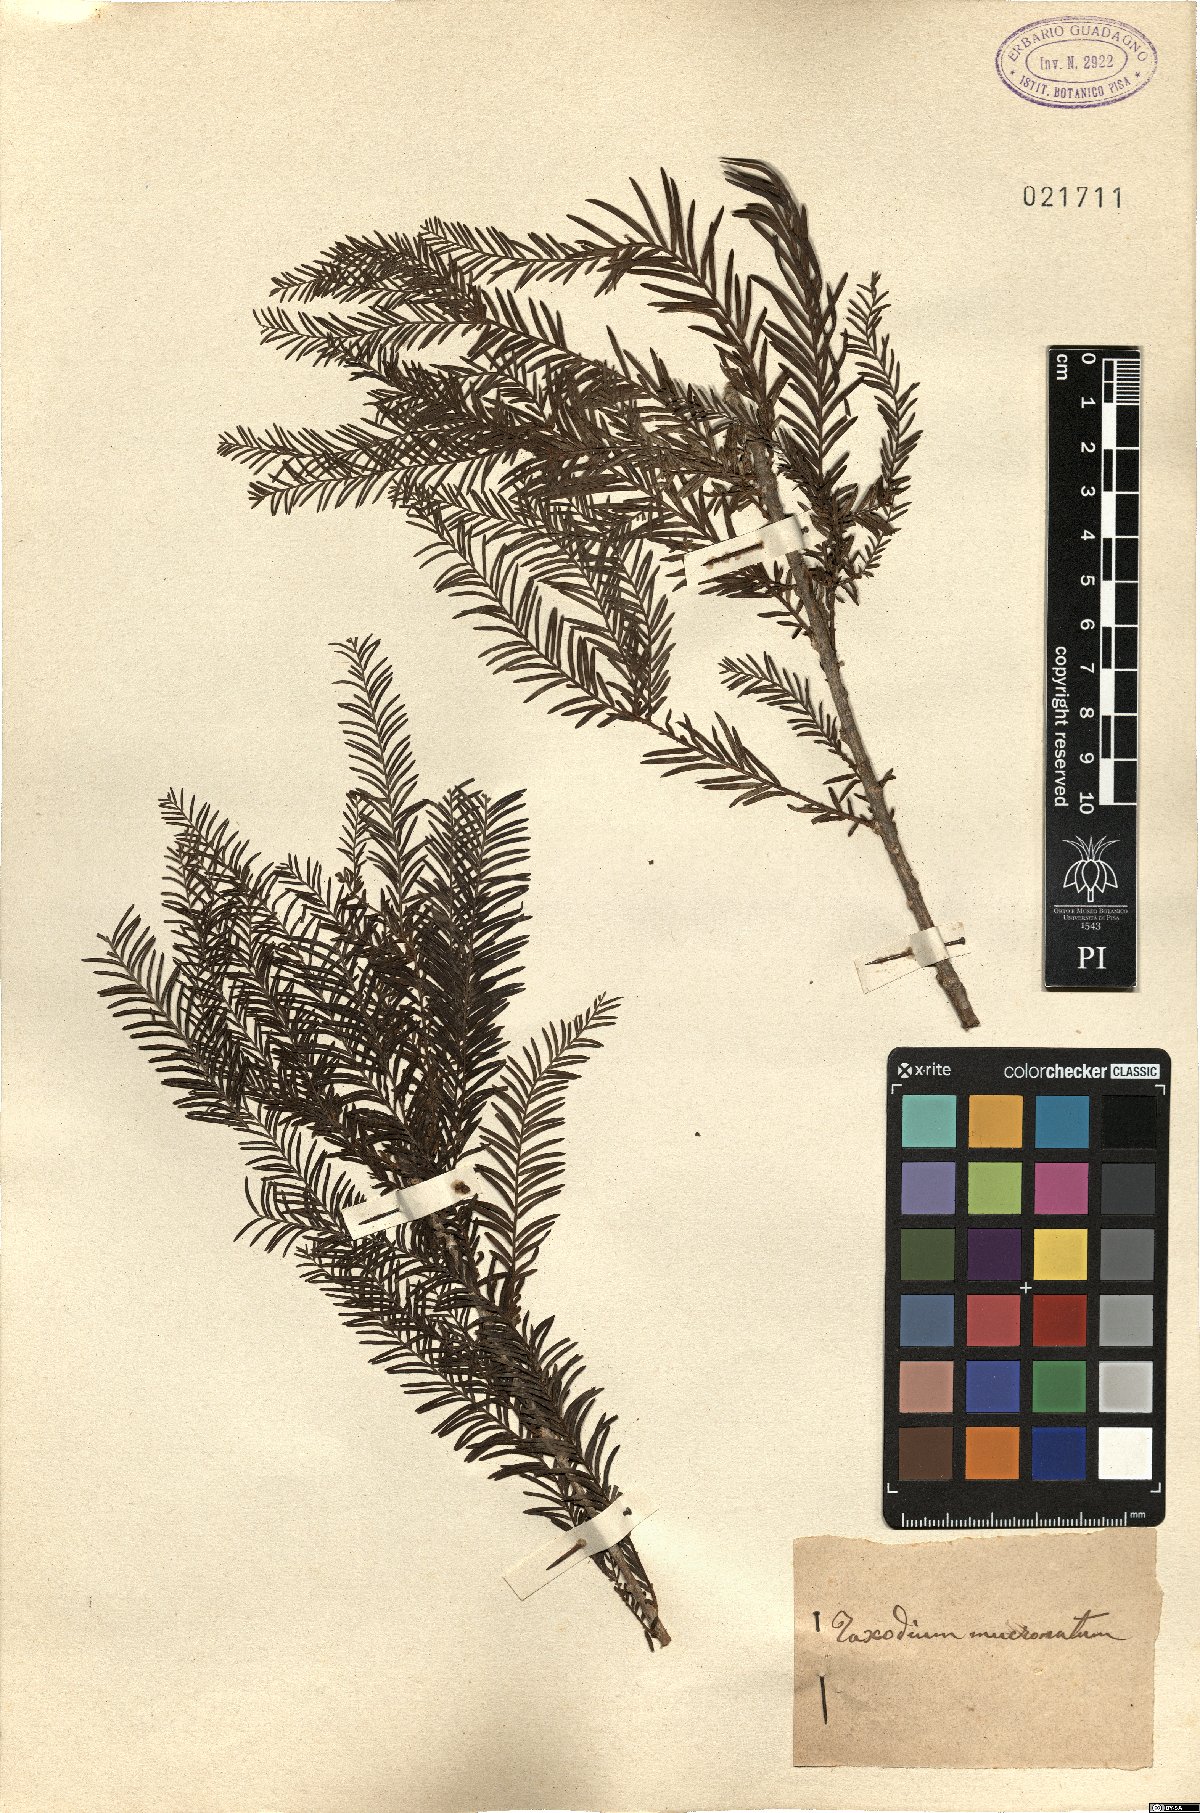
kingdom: Plantae
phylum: Tracheophyta
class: Pinopsida
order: Pinales
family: Cupressaceae
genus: Taxodium
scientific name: Taxodium mucronatum
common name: Montezume bald cypress
